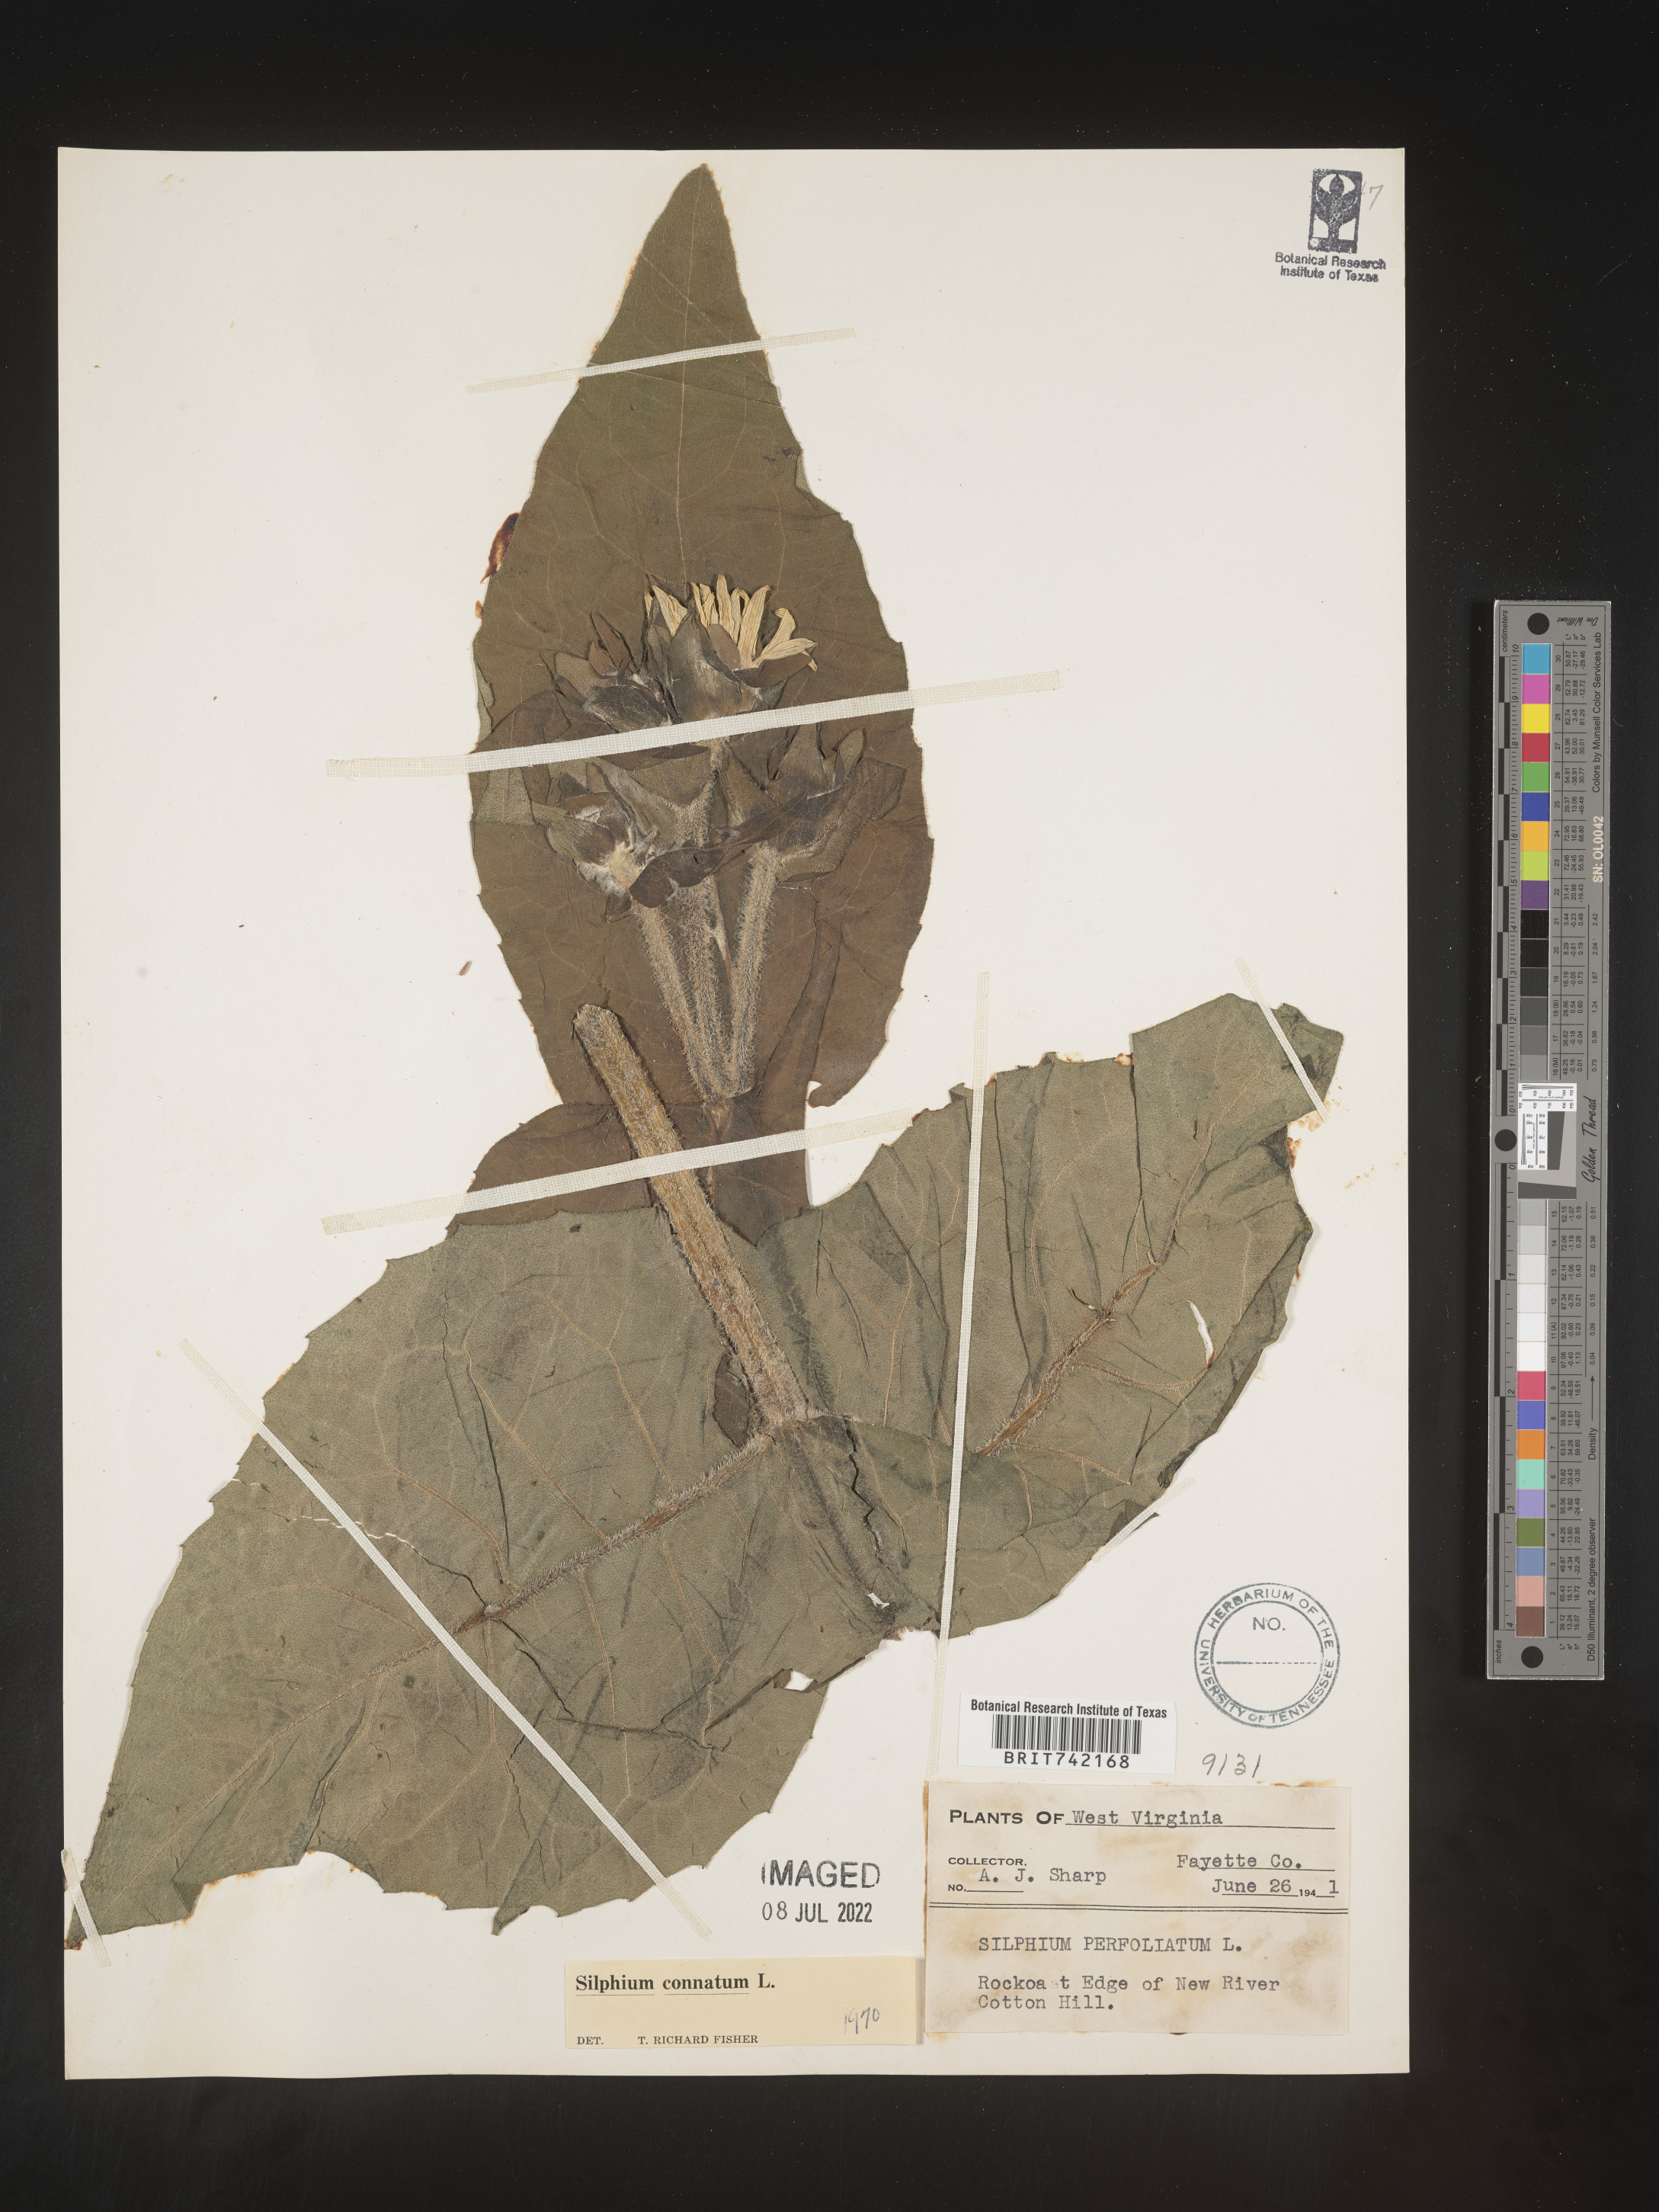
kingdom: Plantae
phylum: Tracheophyta
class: Magnoliopsida
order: Asterales
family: Asteraceae
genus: Silphium
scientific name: Silphium perfoliatum
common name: Cup-plant
